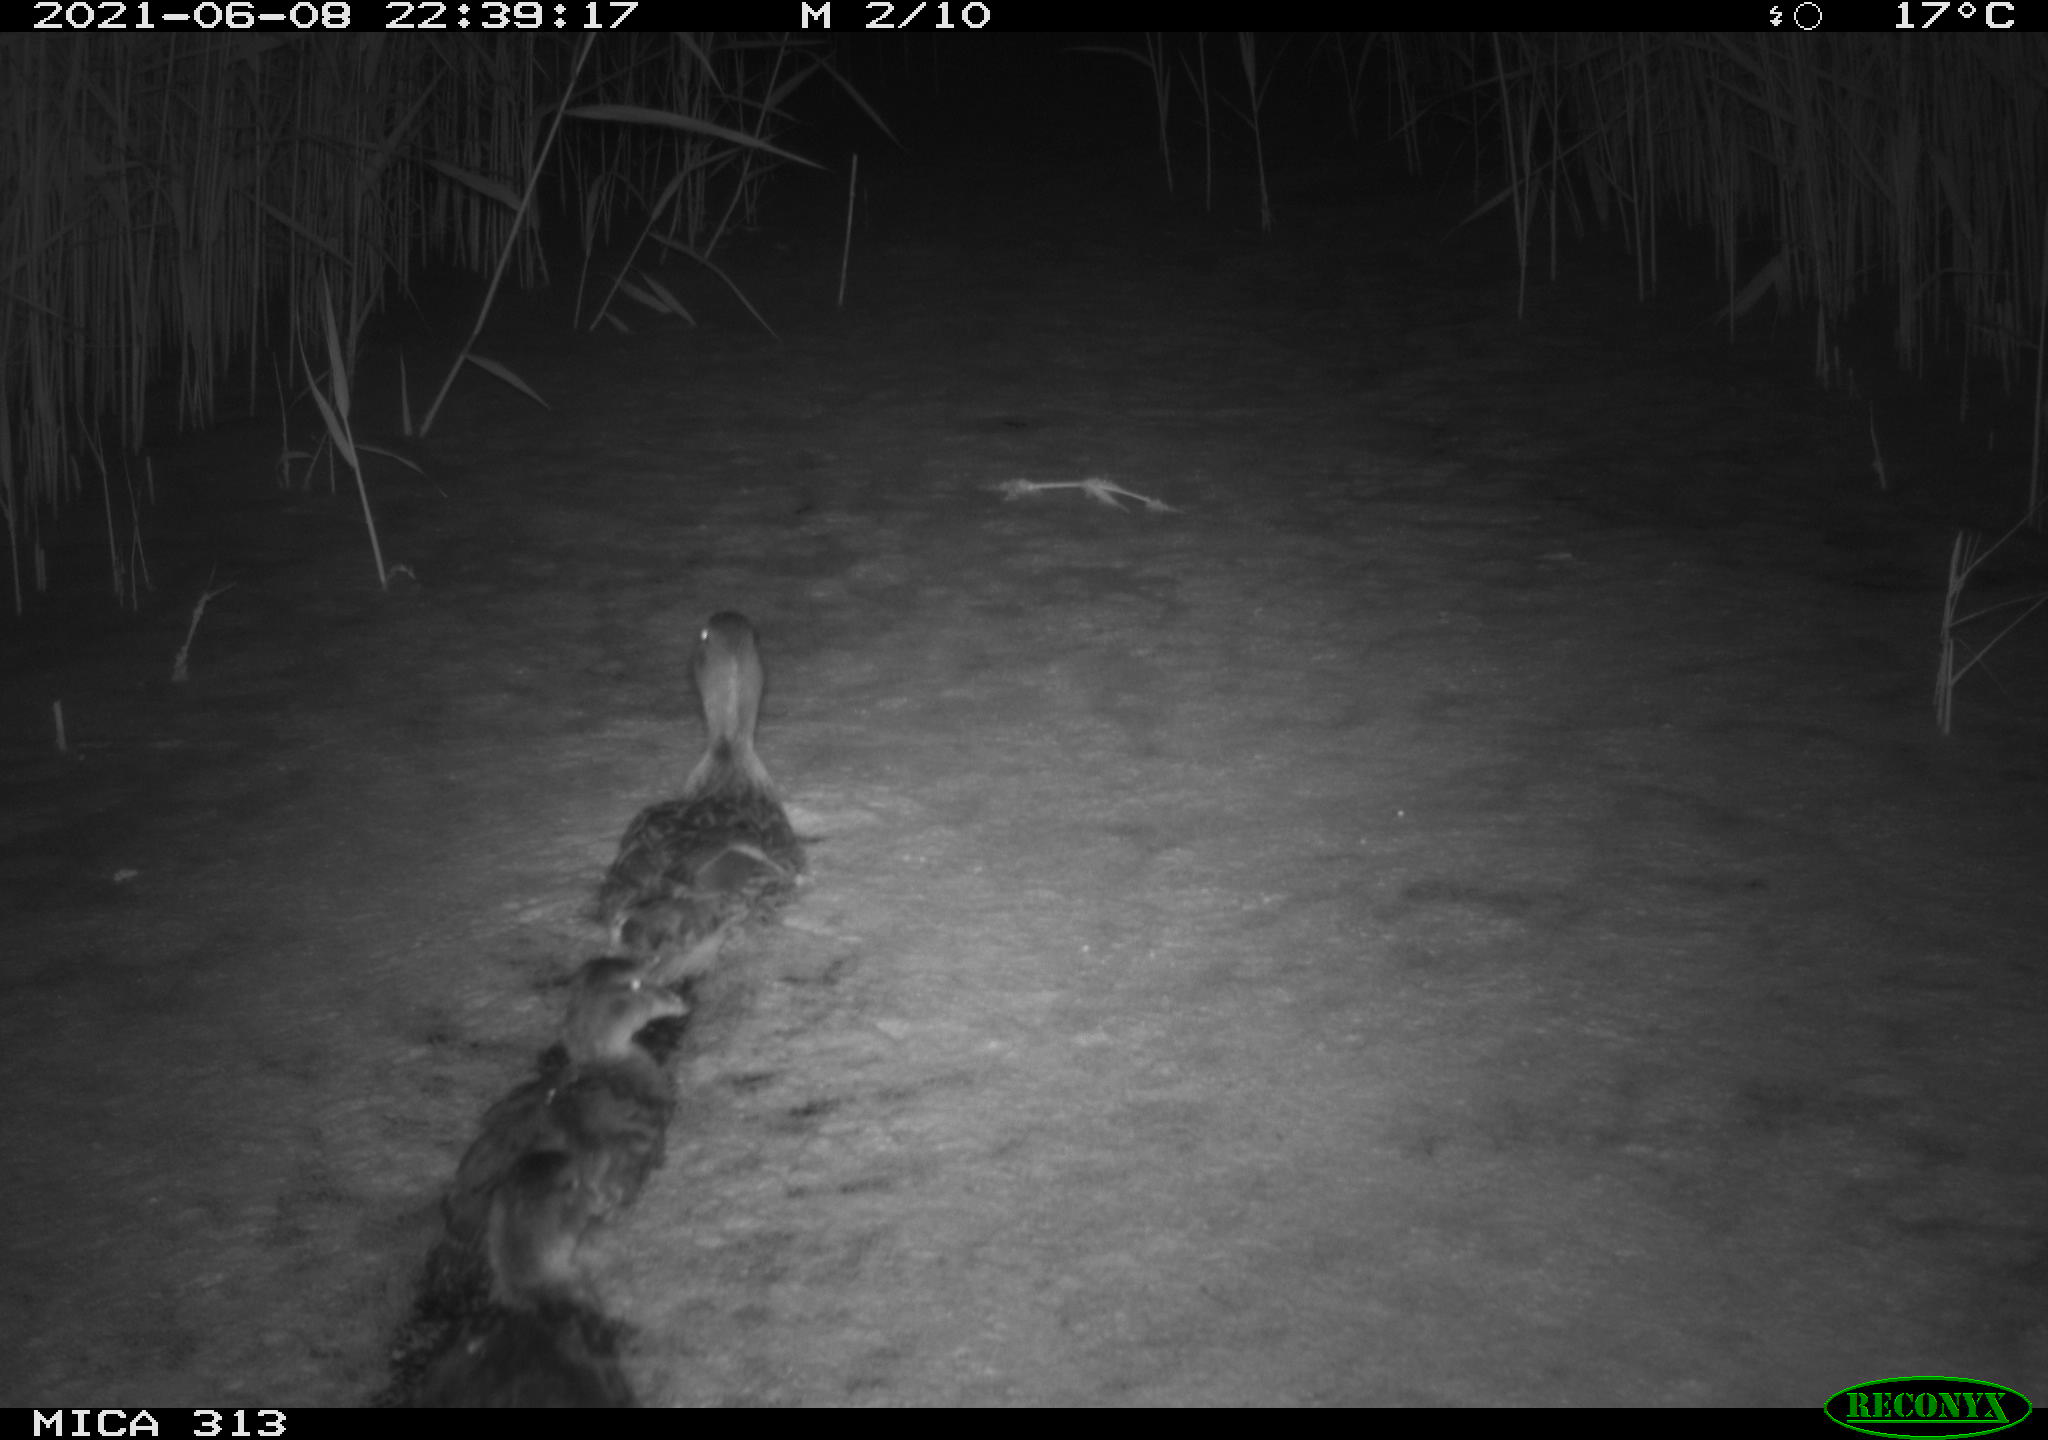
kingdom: Animalia
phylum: Chordata
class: Aves
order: Anseriformes
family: Anatidae
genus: Anas
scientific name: Anas
